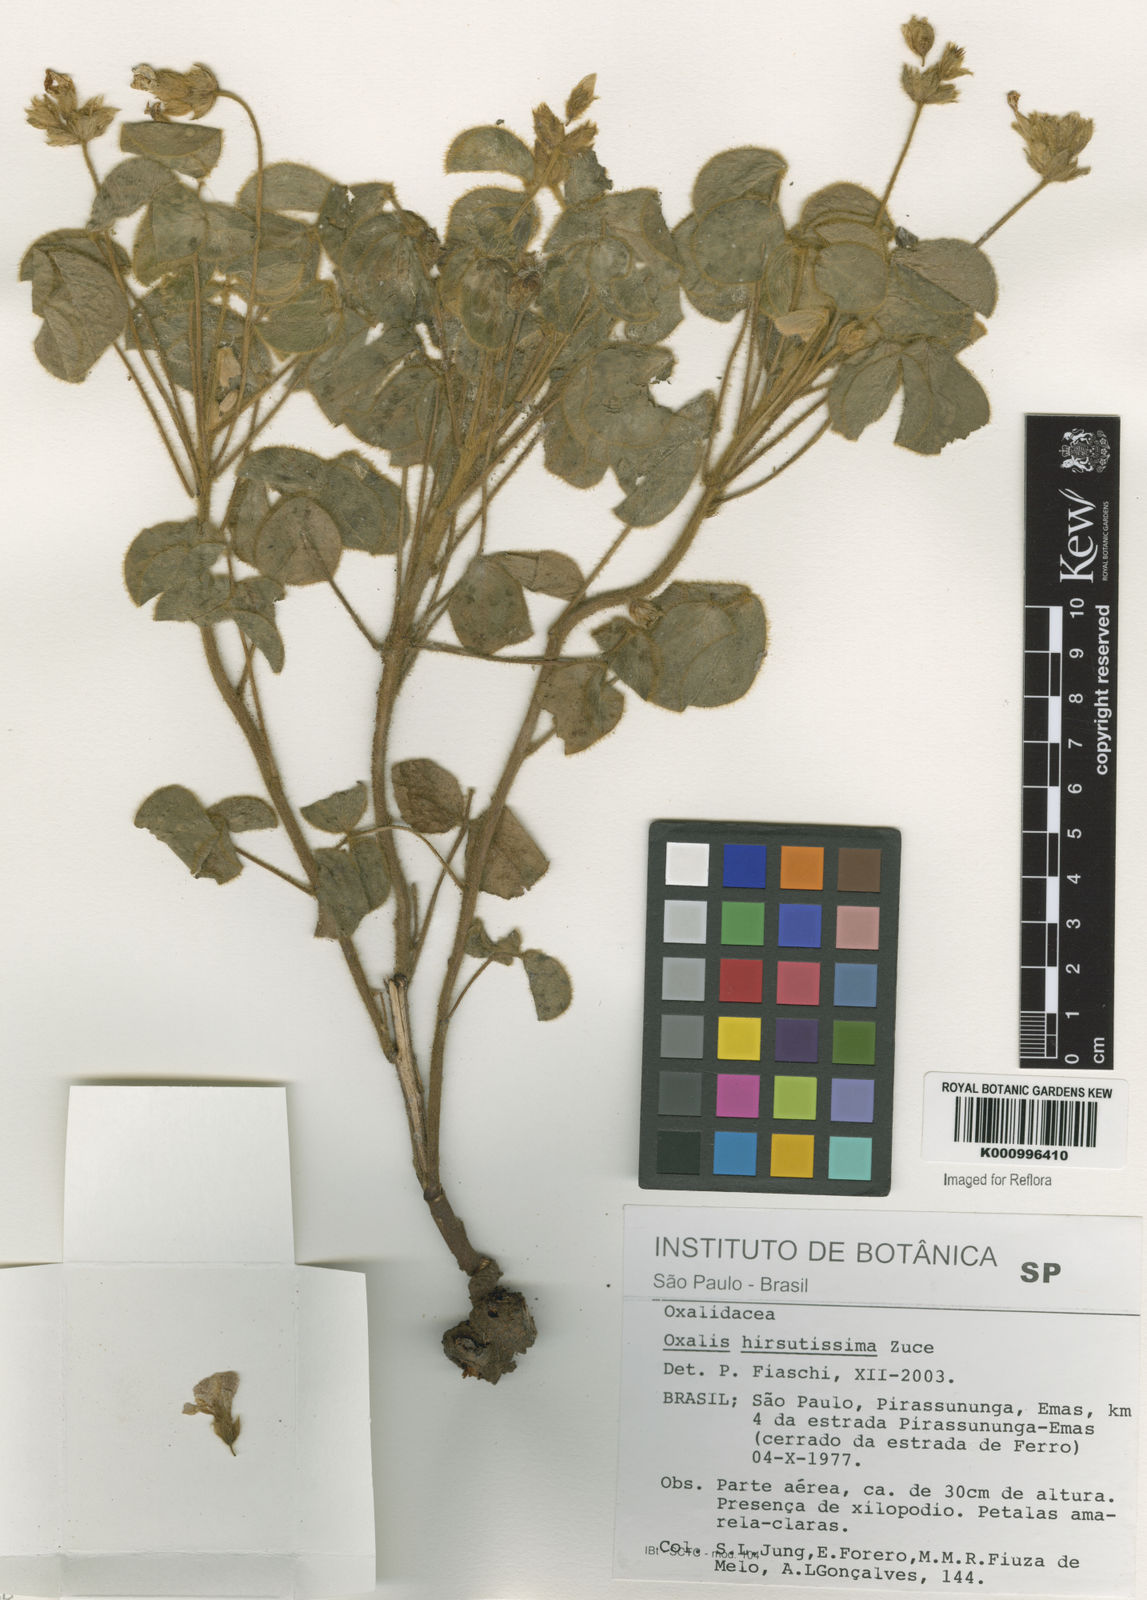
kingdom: Plantae
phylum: Tracheophyta
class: Magnoliopsida
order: Oxalidales
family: Oxalidaceae
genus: Oxalis
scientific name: Oxalis hirsutissima
